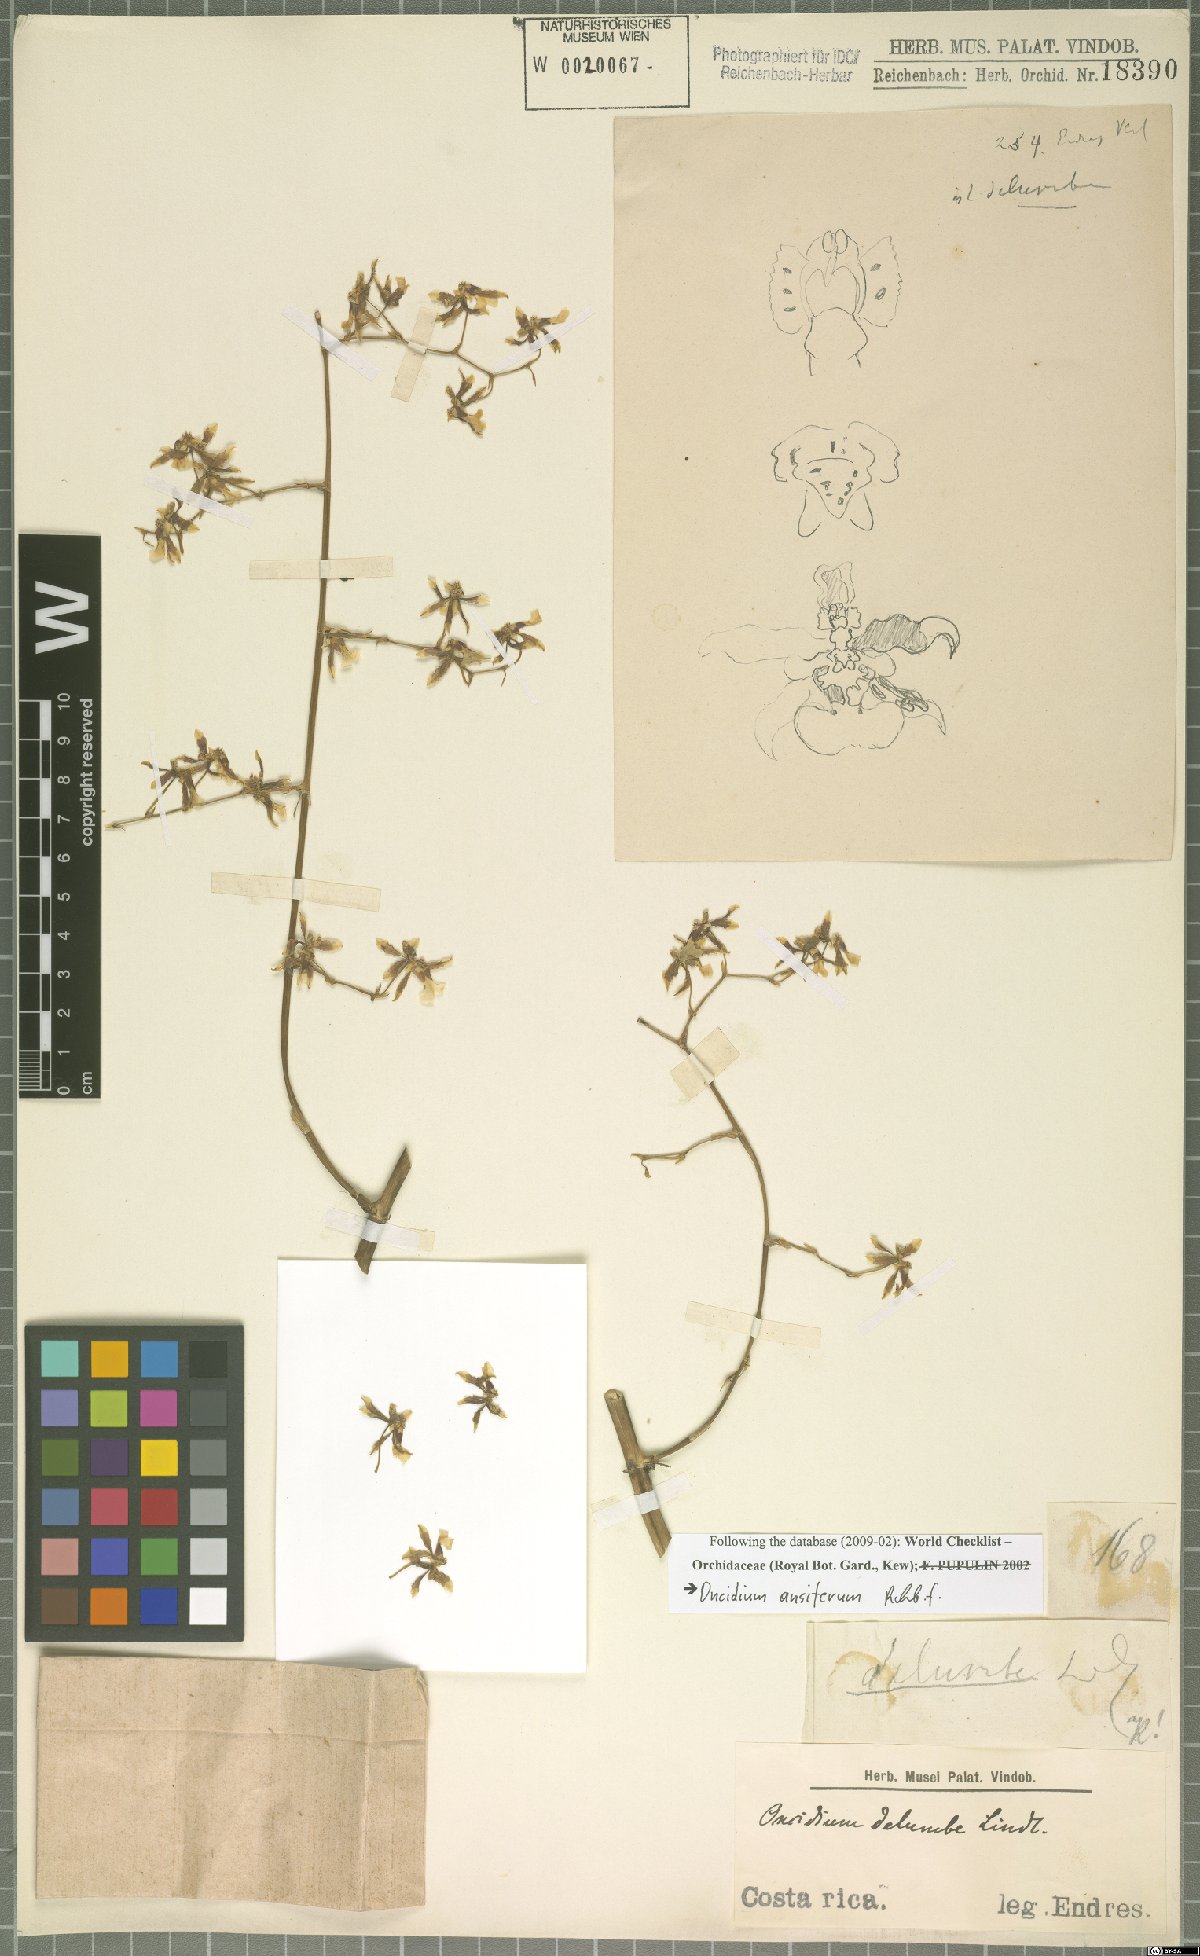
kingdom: Plantae
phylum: Tracheophyta
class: Liliopsida
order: Asparagales
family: Orchidaceae
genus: Oncidium
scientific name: Oncidium ansiferum
